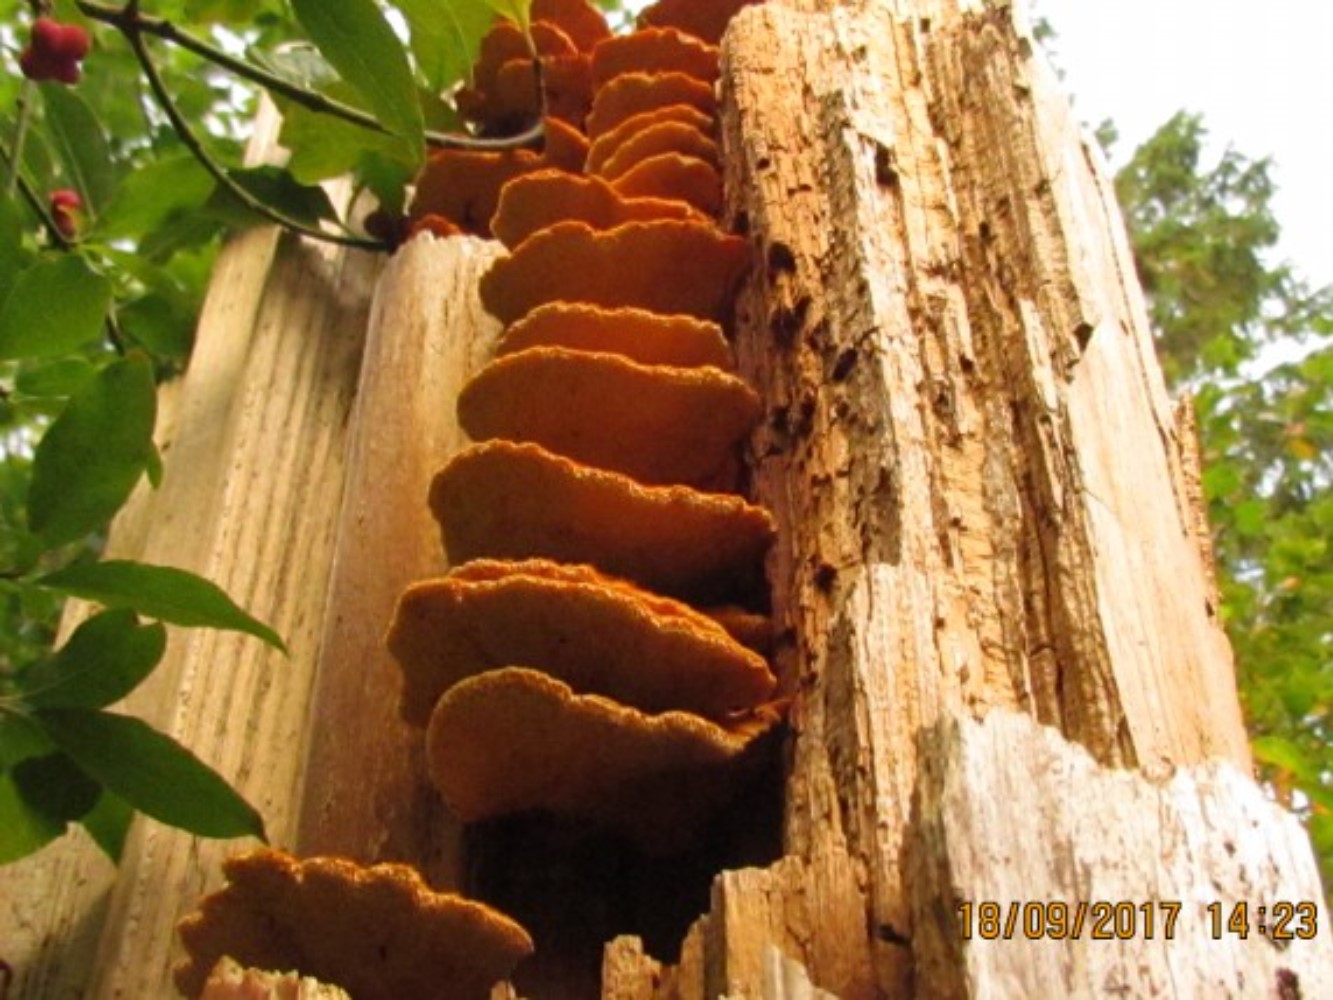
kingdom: Fungi
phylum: Basidiomycota
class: Agaricomycetes
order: Polyporales
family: Pycnoporellaceae
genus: Pycnoporellus
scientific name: Pycnoporellus fulgens
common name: flammeporesvamp
